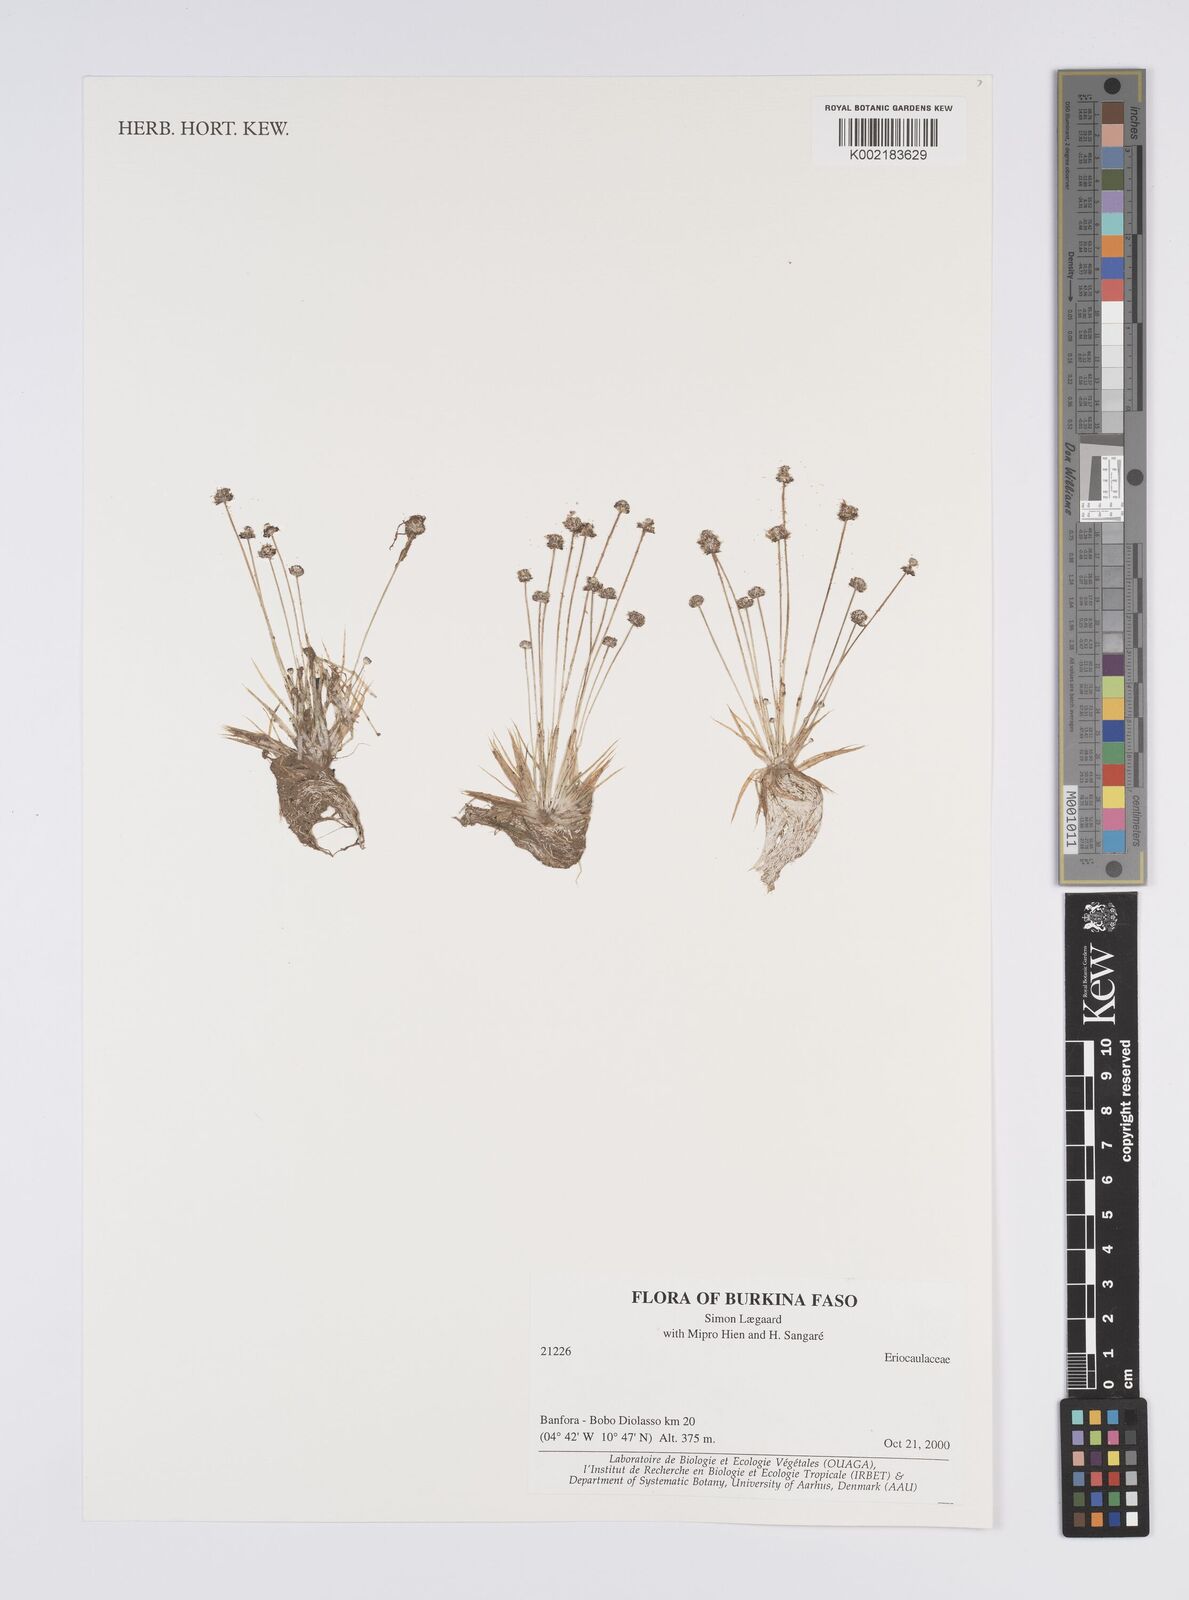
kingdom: Plantae
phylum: Tracheophyta
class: Liliopsida
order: Poales
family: Eriocaulaceae
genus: Eriocaulon
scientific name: Eriocaulon
